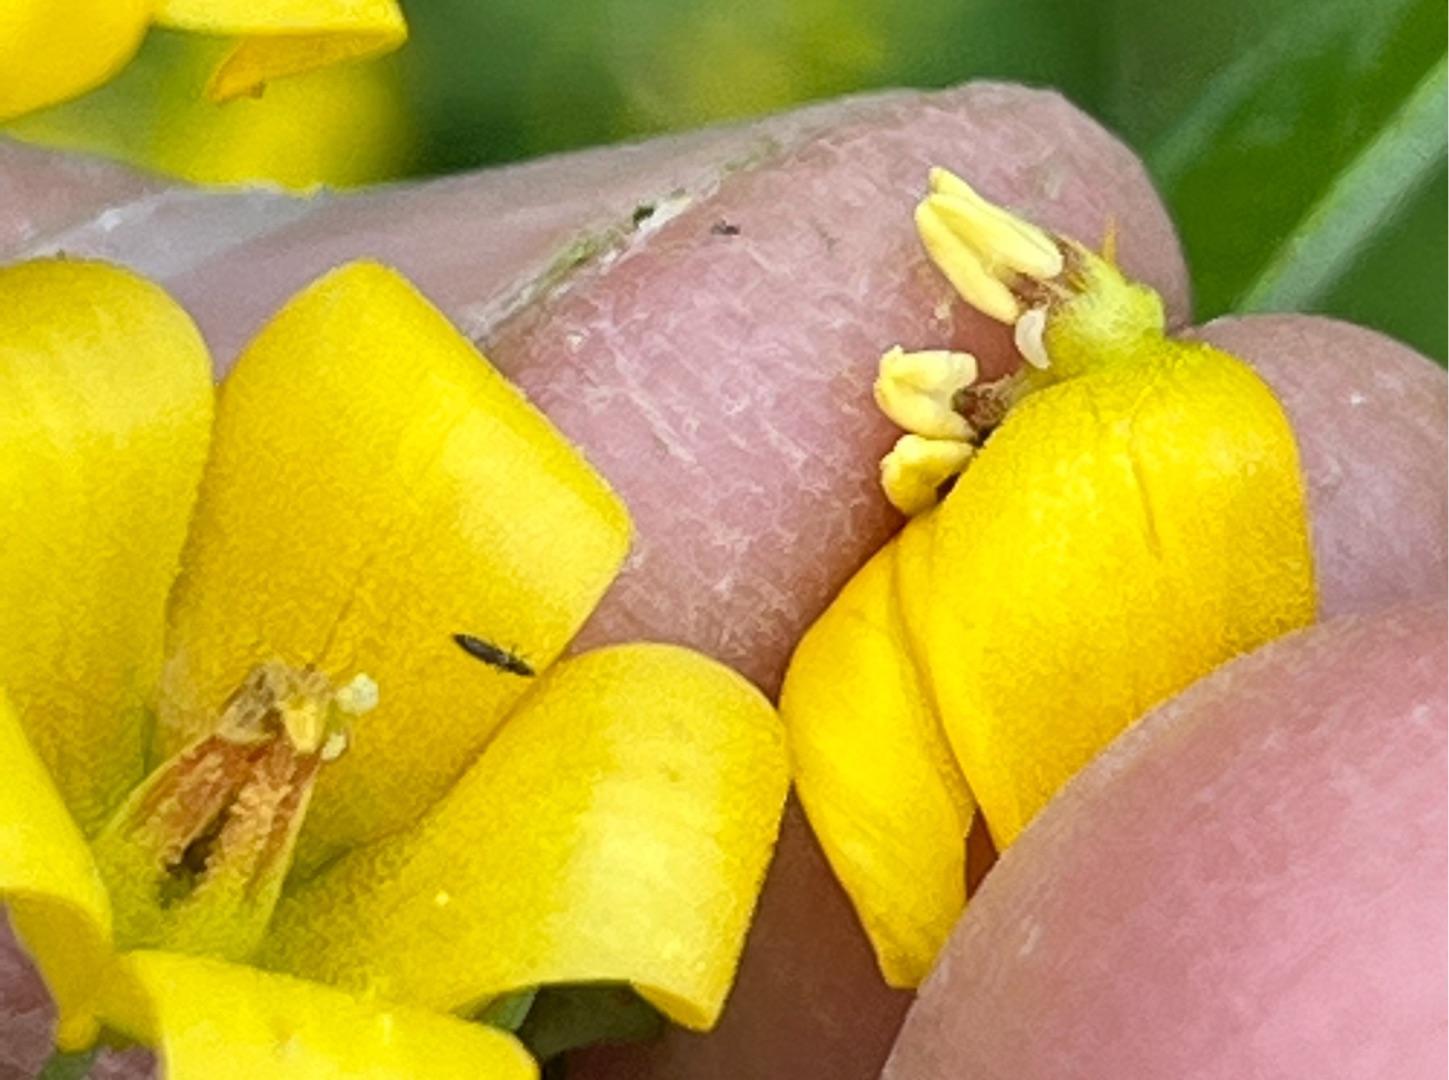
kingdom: Animalia
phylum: Arthropoda
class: Insecta
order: Diptera
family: Cecidomyiidae
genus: Contarinia
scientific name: Contarinia lysimachiae
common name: Fredløsgalmyg
